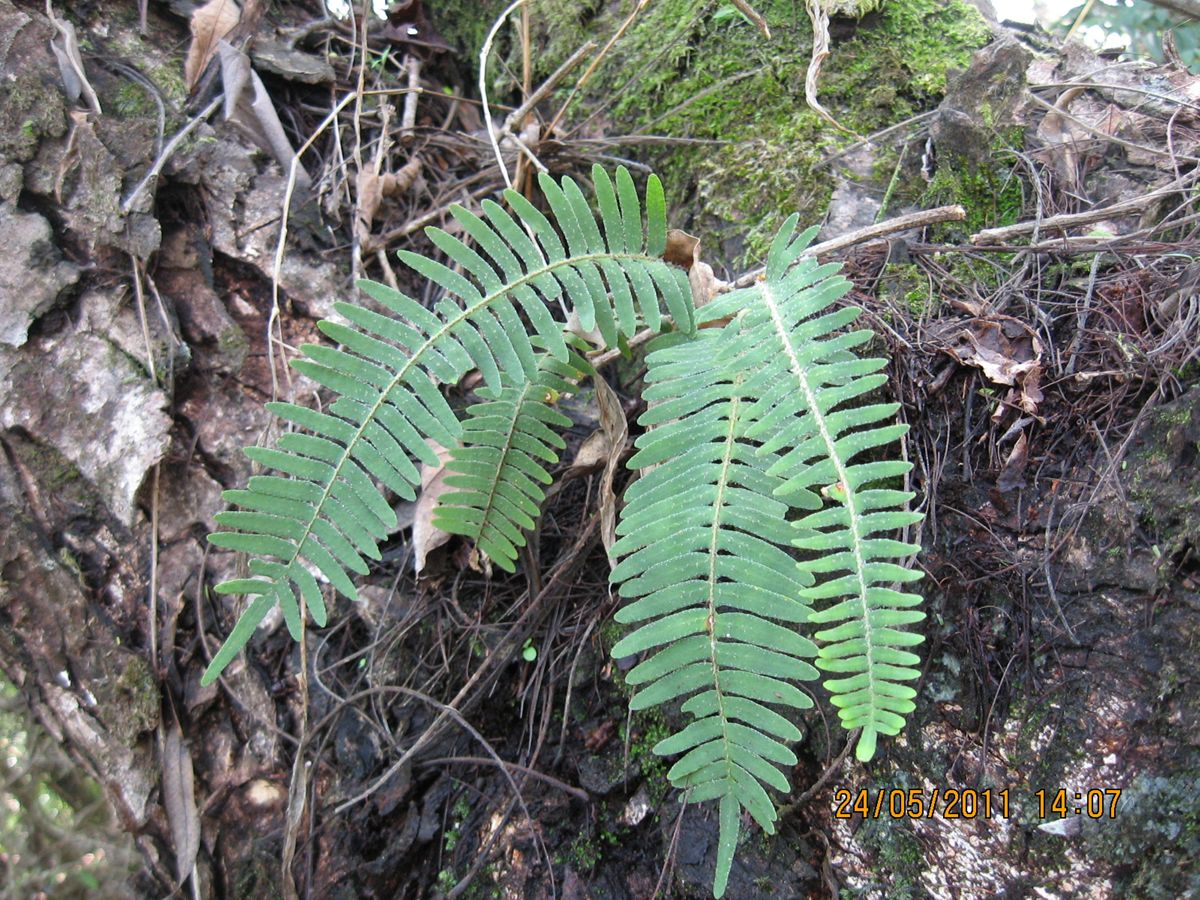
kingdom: Plantae
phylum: Tracheophyta
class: Polypodiopsida
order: Polypodiales
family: Polypodiaceae
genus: Pleopeltis
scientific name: Pleopeltis furfuracea
